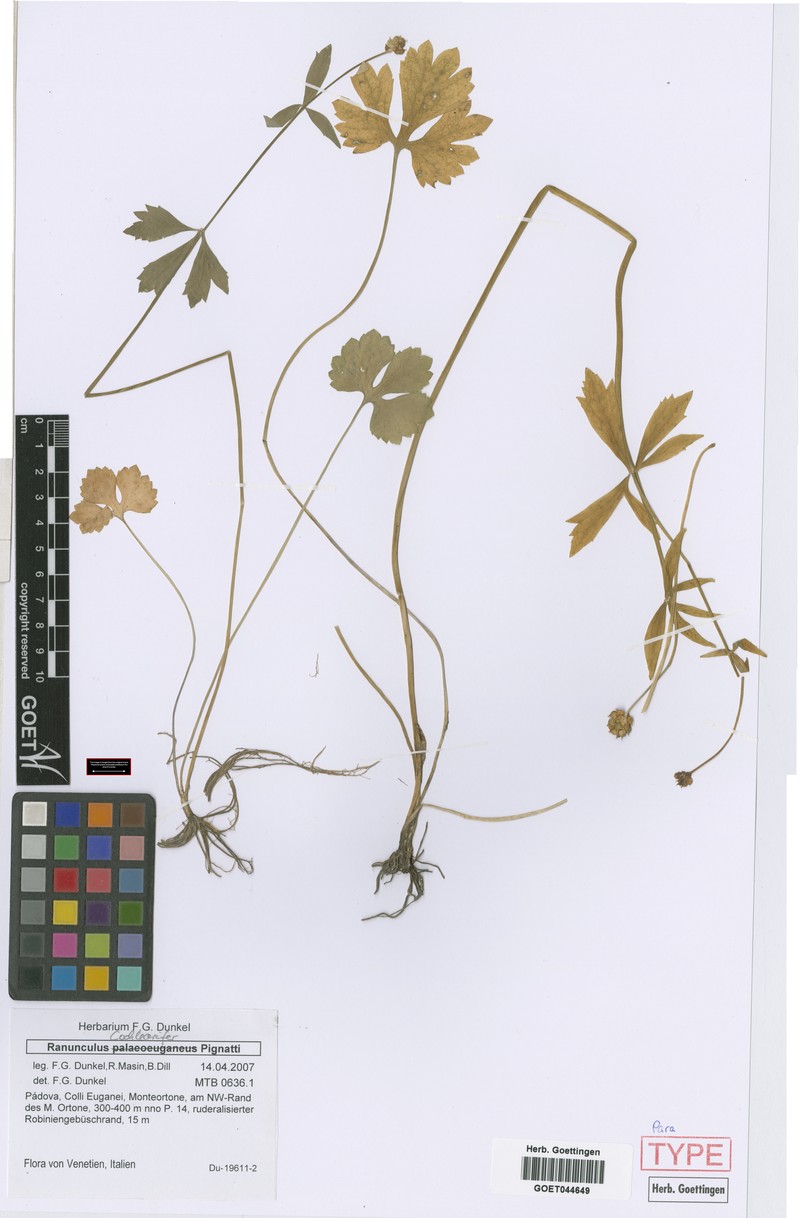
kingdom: Plantae
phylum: Tracheophyta
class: Magnoliopsida
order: Ranunculales
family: Ranunculaceae
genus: Ranunculus
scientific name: Ranunculus cochlearifer
